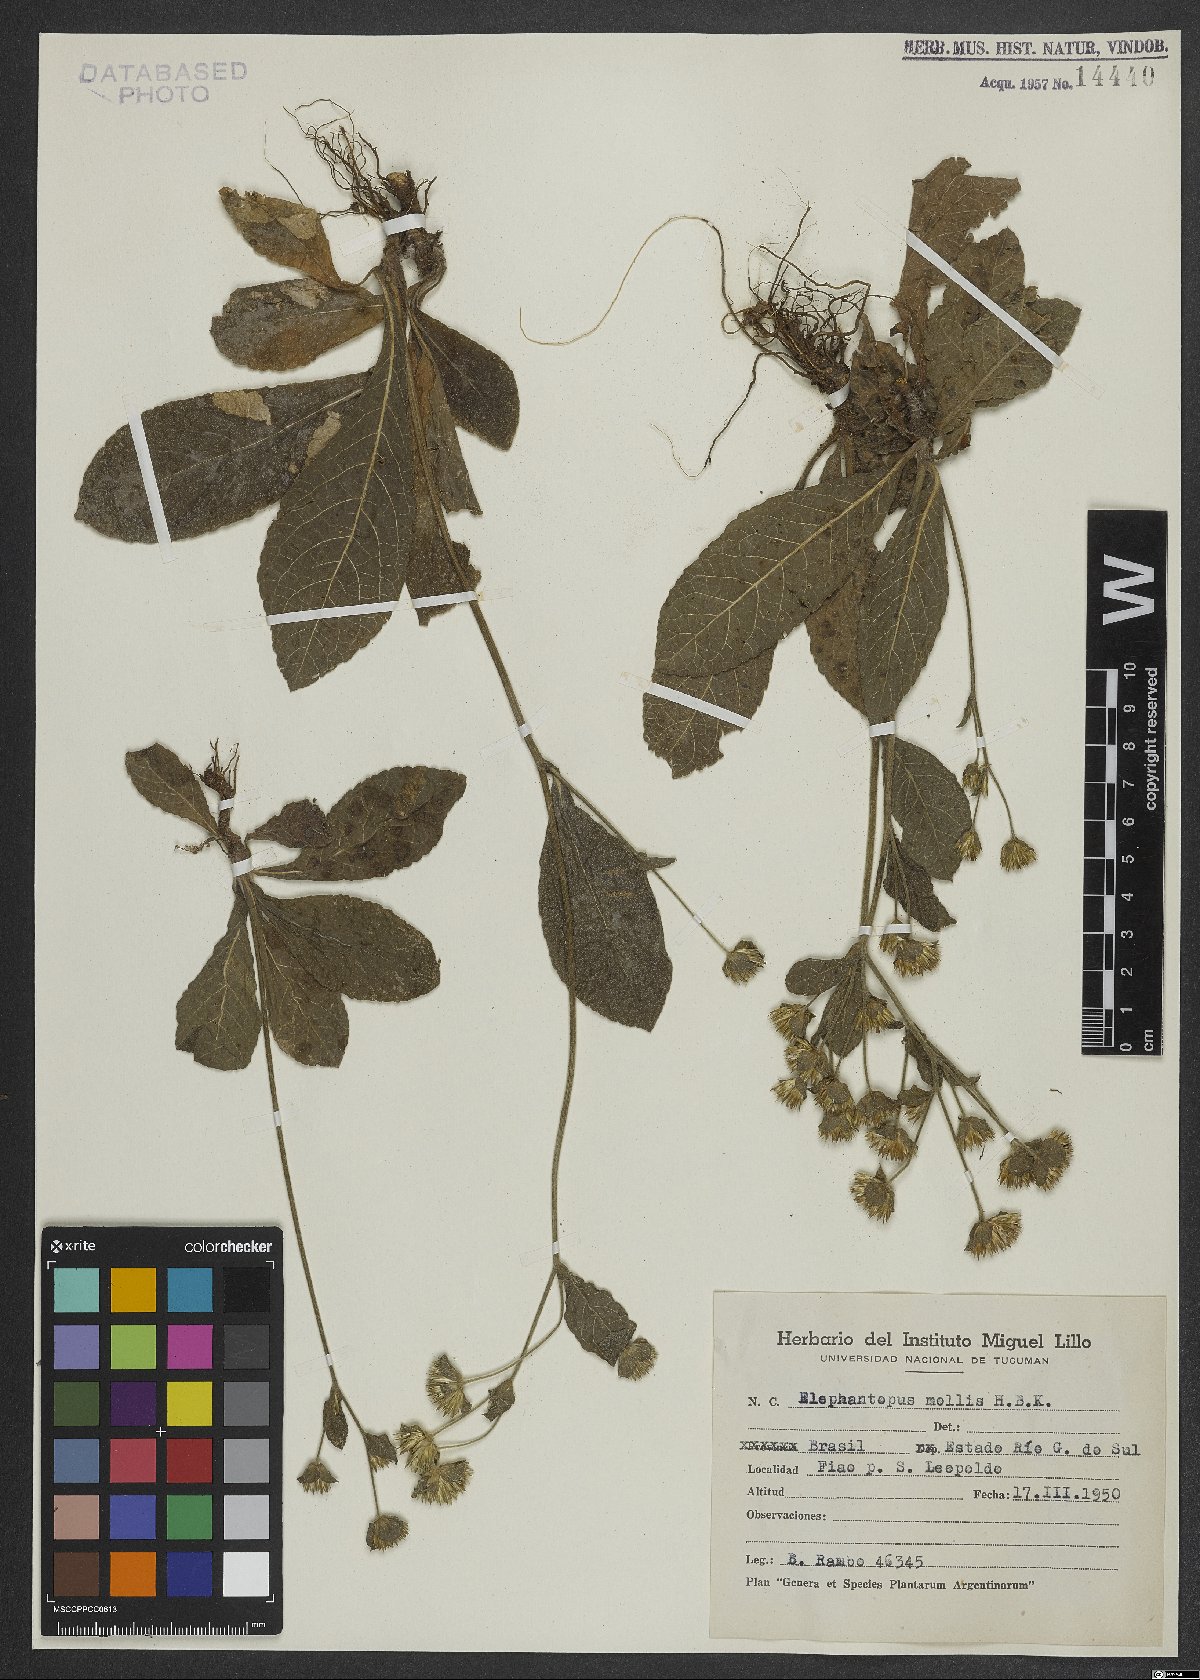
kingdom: Plantae
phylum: Tracheophyta
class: Magnoliopsida
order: Asterales
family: Asteraceae
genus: Elephantopus
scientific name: Elephantopus mollis
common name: Soft elephantsfoot
